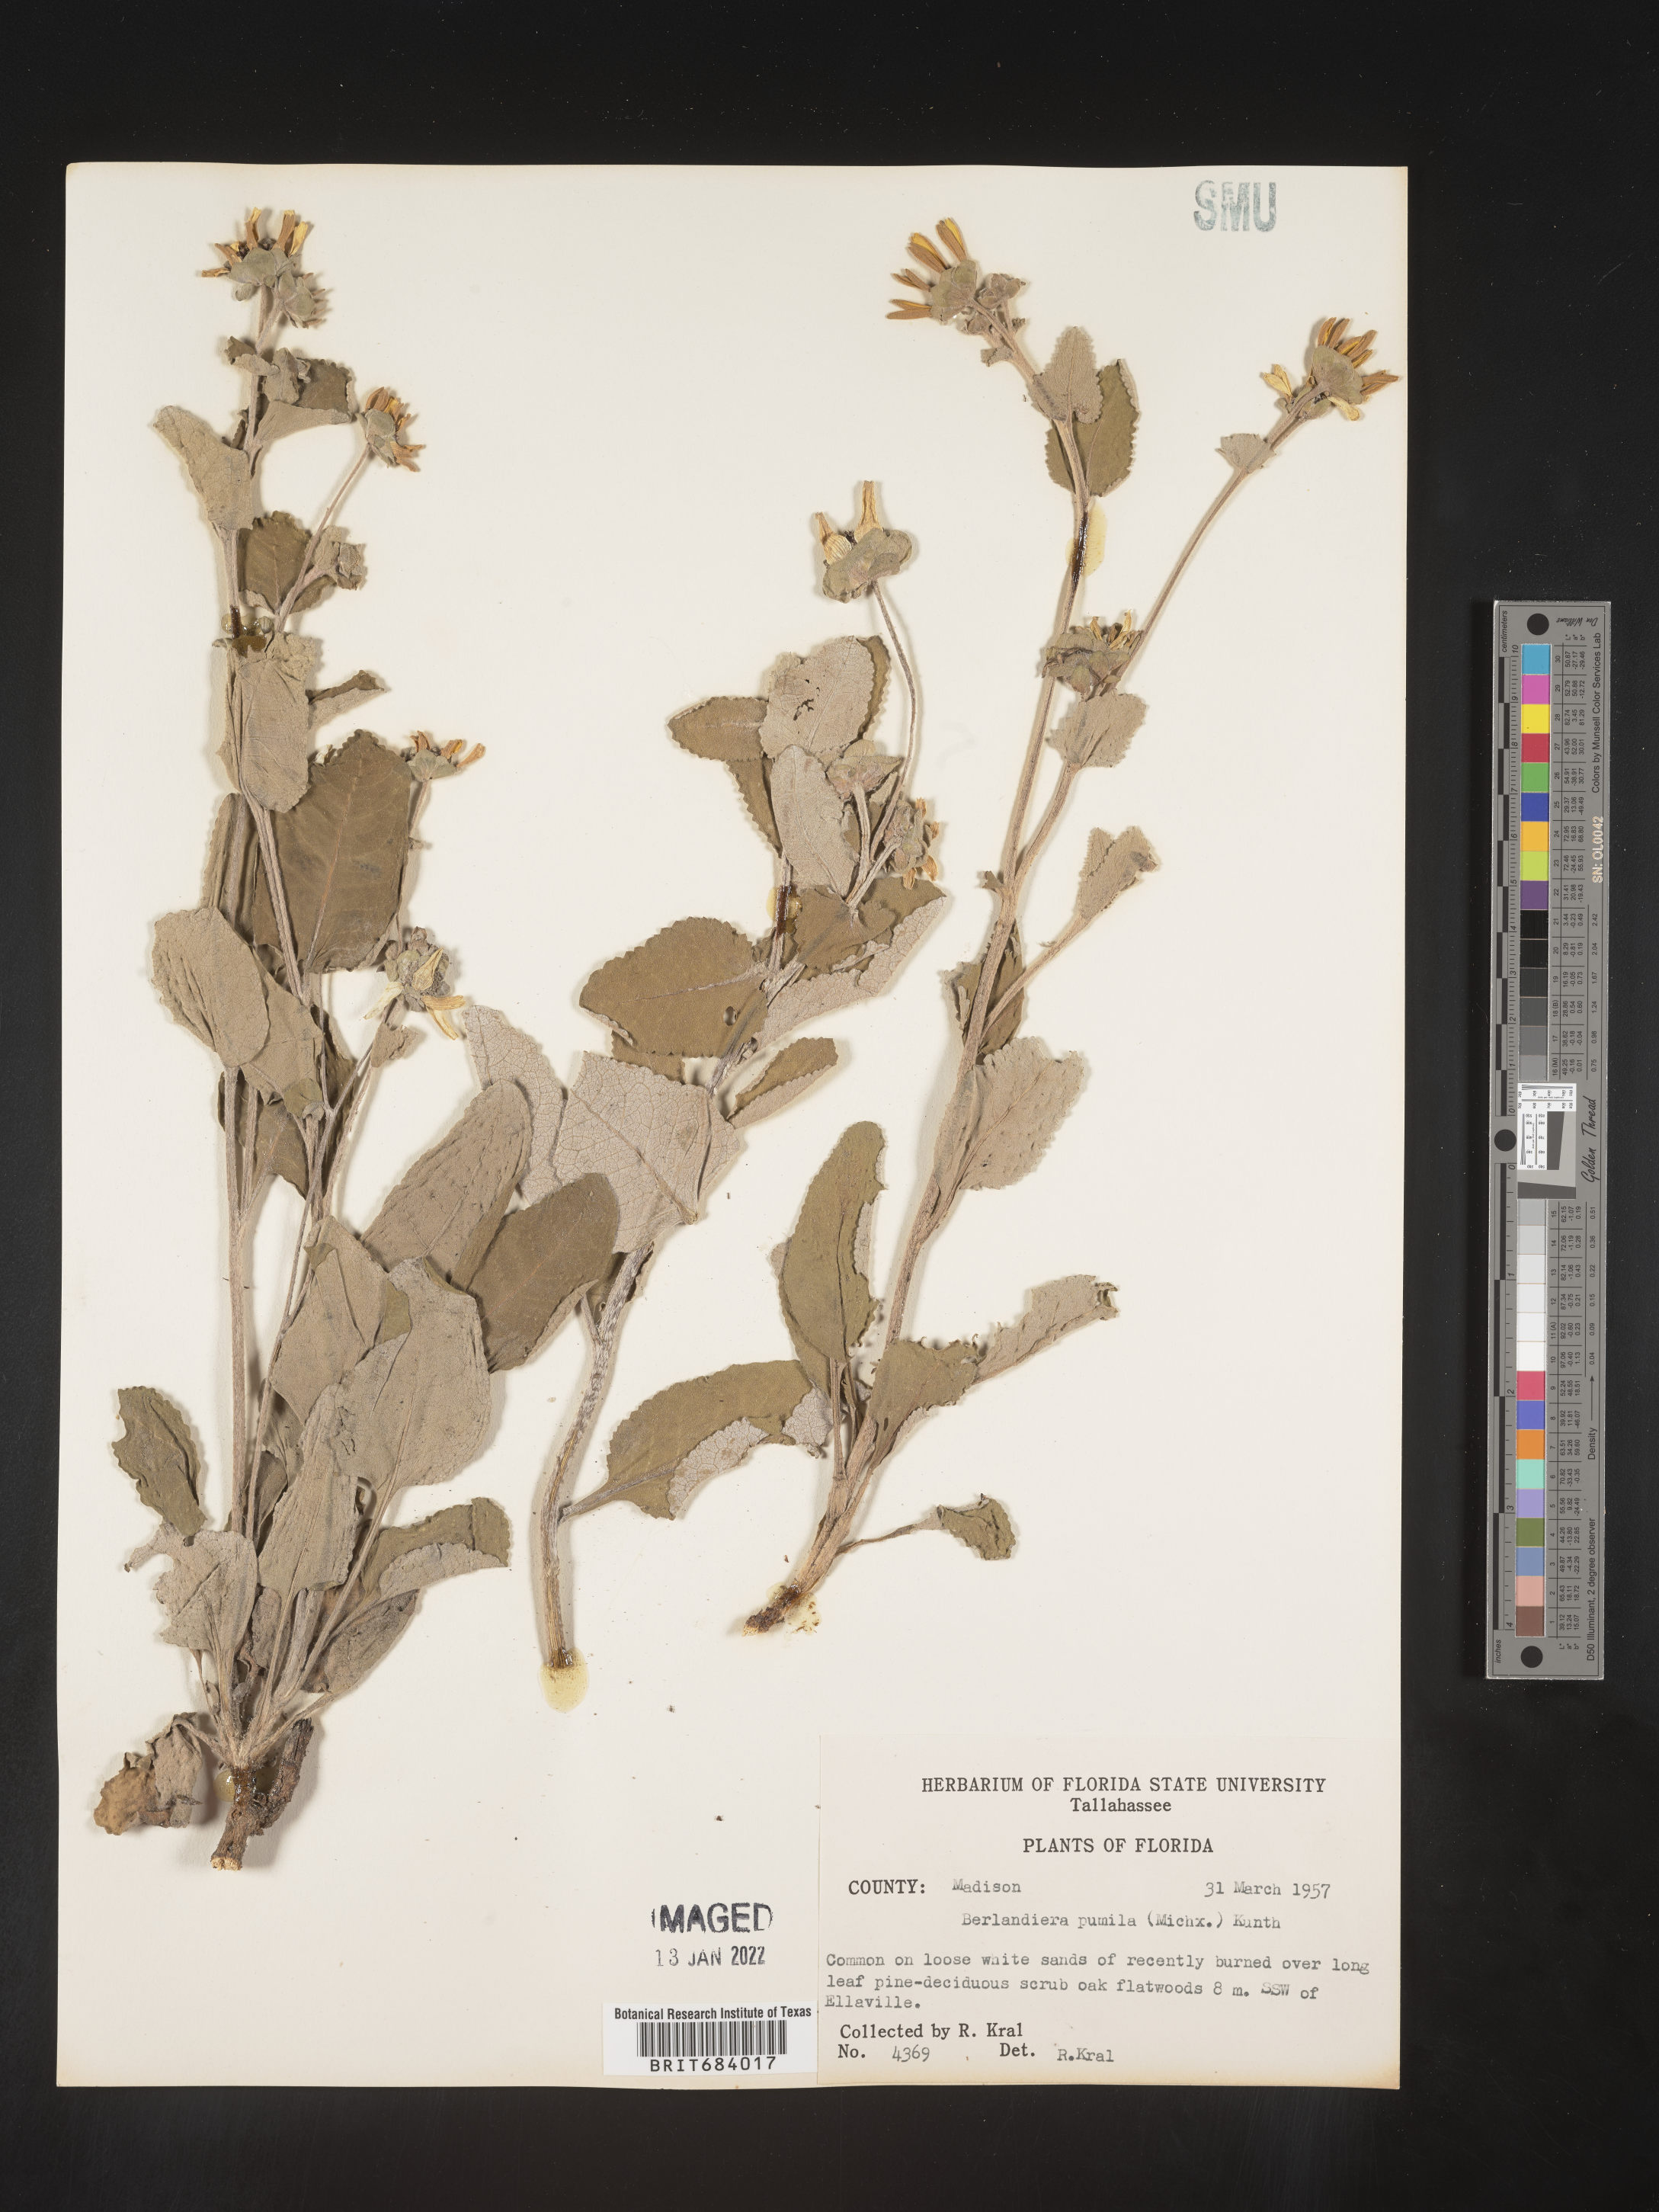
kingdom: Plantae
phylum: Tracheophyta
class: Magnoliopsida
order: Asterales
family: Asteraceae
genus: Berlandiera
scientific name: Berlandiera pumila
